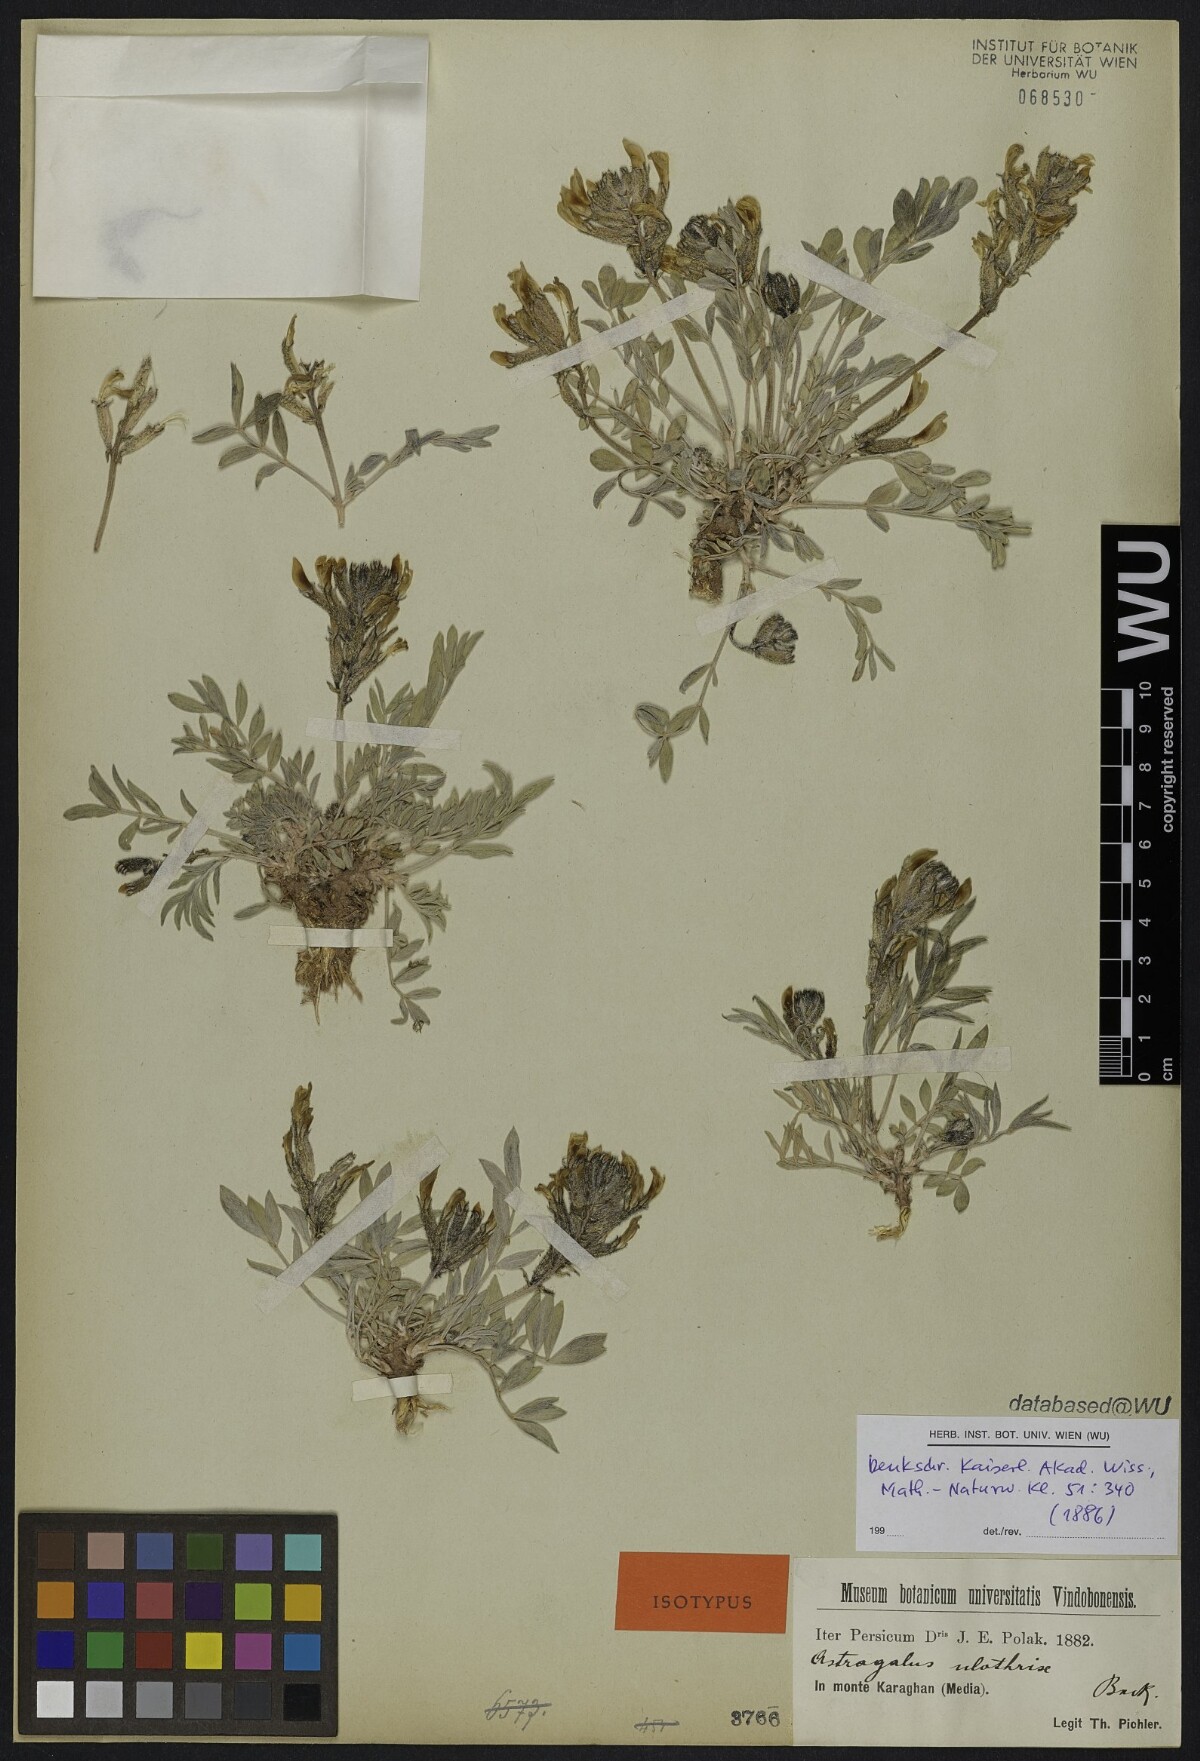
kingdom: Plantae
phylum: Tracheophyta
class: Magnoliopsida
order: Fabales
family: Fabaceae
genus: Astragalus
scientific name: Astragalus pentanthus
